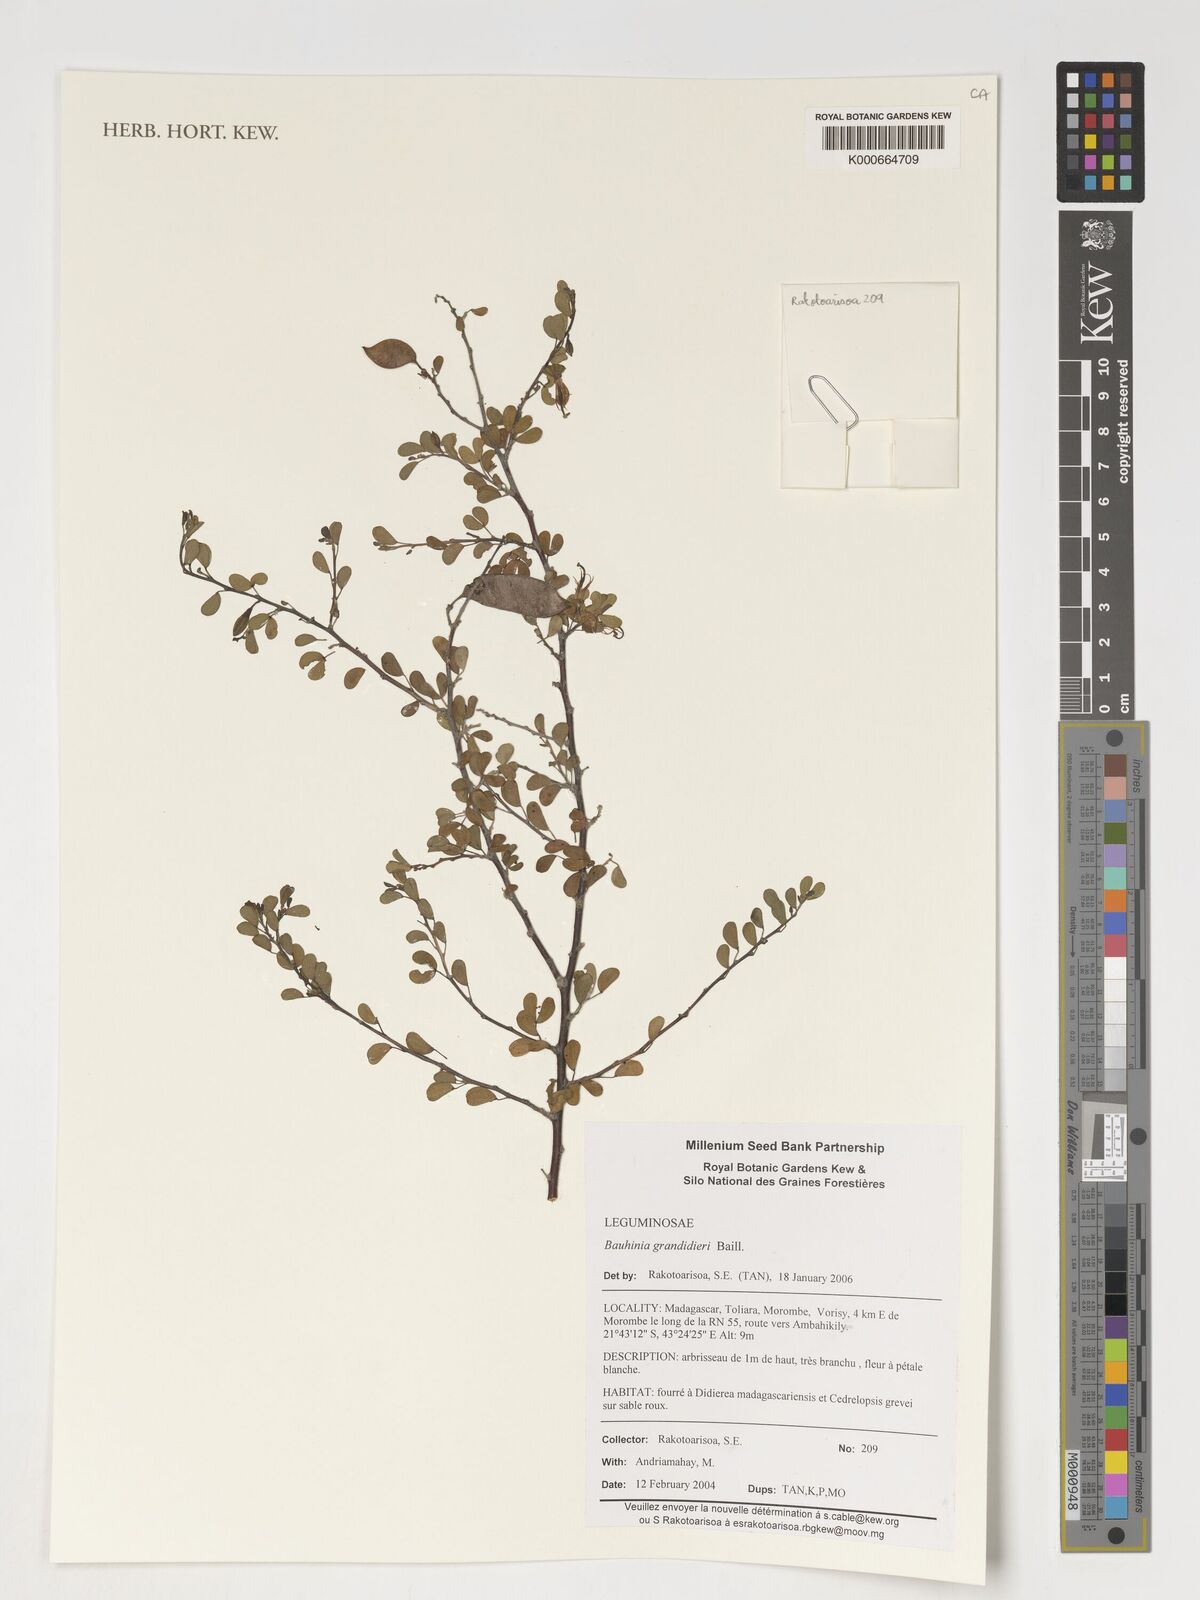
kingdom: Plantae
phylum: Tracheophyta
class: Magnoliopsida
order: Fabales
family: Fabaceae
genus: Bauhinia
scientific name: Bauhinia grandidieri
